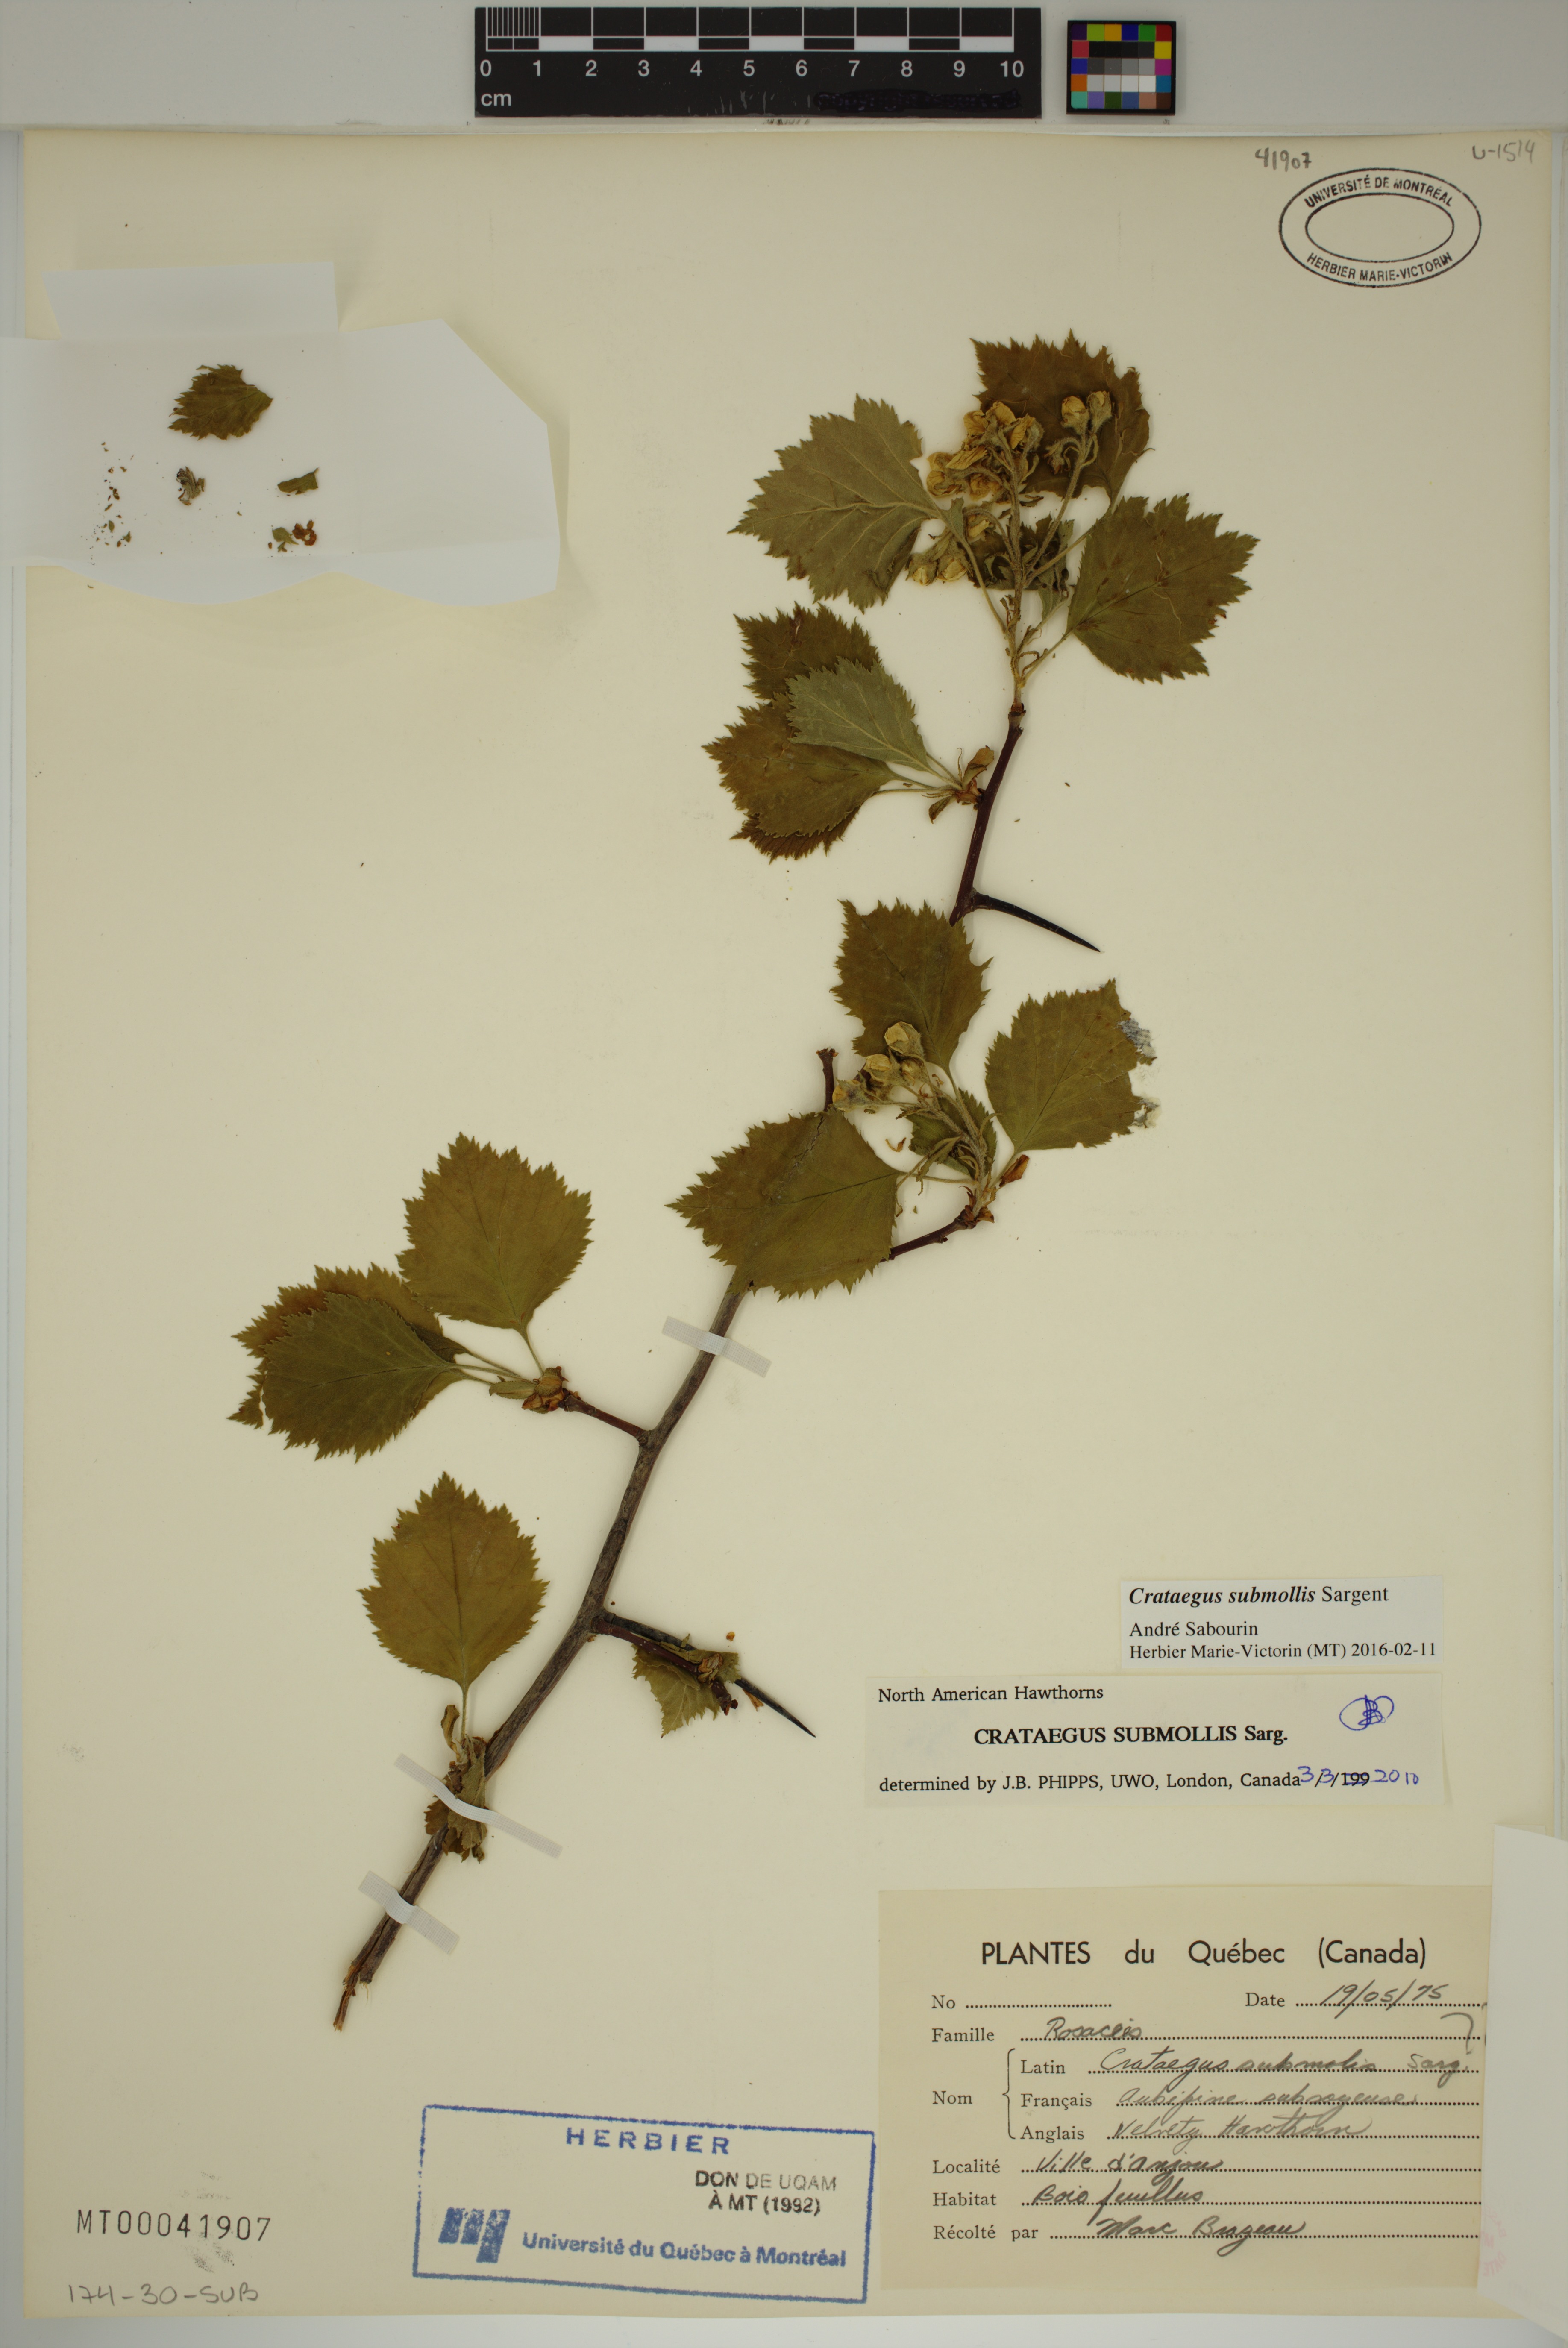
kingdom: Plantae
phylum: Tracheophyta
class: Magnoliopsida
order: Rosales
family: Rosaceae
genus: Crataegus
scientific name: Crataegus submollis
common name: Hairy cockspurthorn
